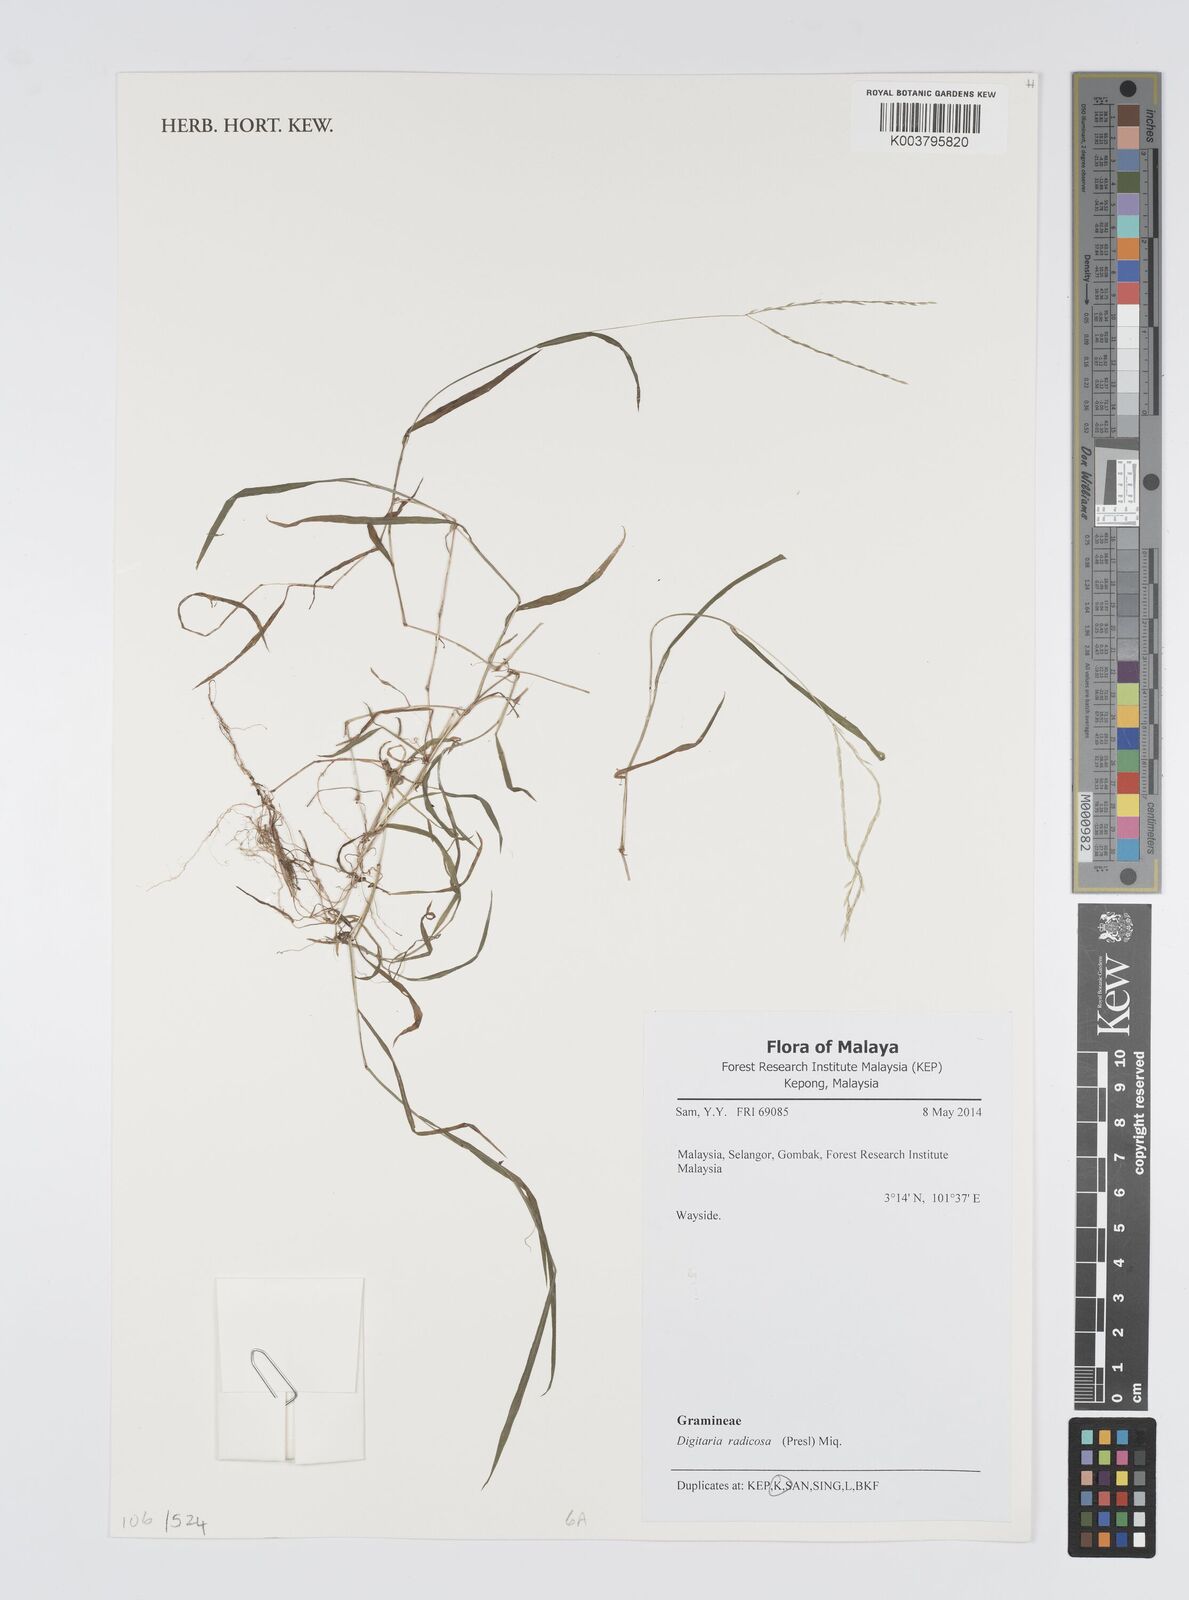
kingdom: Plantae
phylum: Tracheophyta
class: Liliopsida
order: Poales
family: Poaceae
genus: Digitaria
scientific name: Digitaria radicosa
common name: Trailing crabgrass
